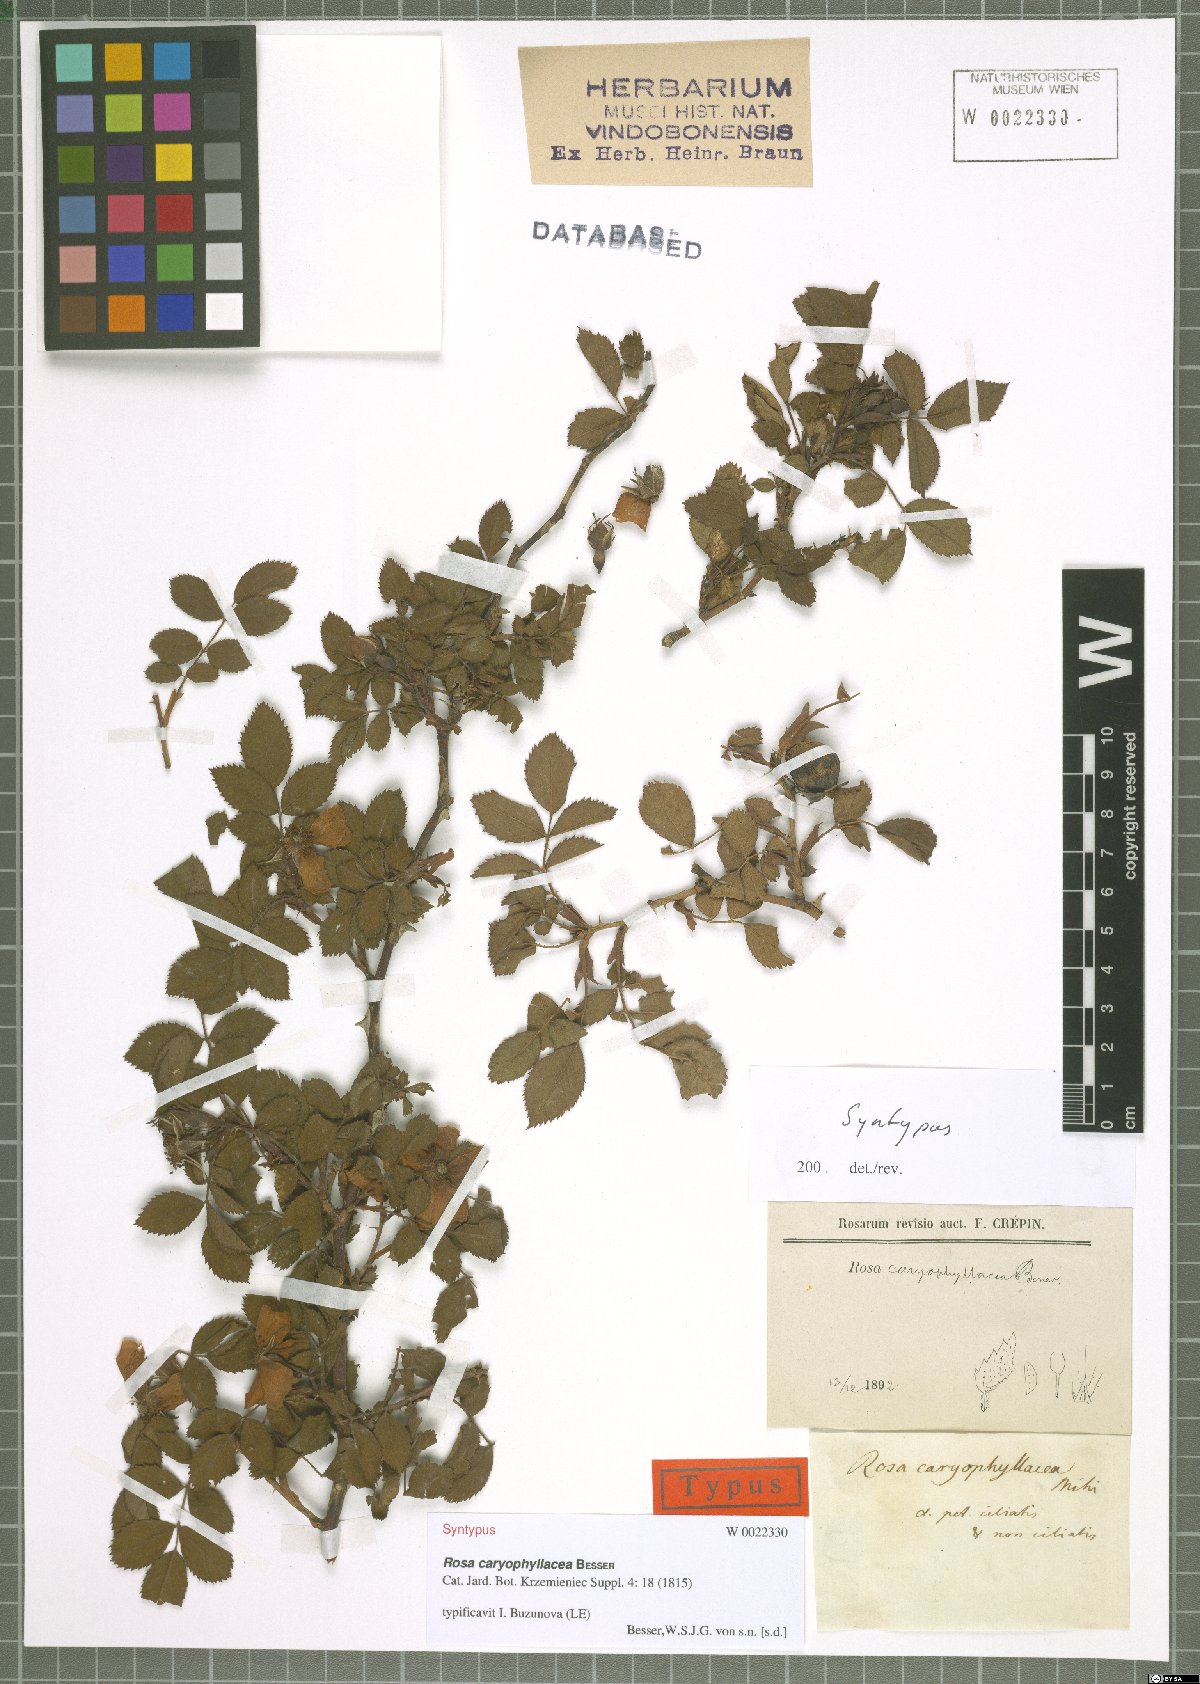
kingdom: Plantae
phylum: Tracheophyta
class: Magnoliopsida
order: Rosales
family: Rosaceae
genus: Rosa
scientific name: Rosa caryophyllacea
